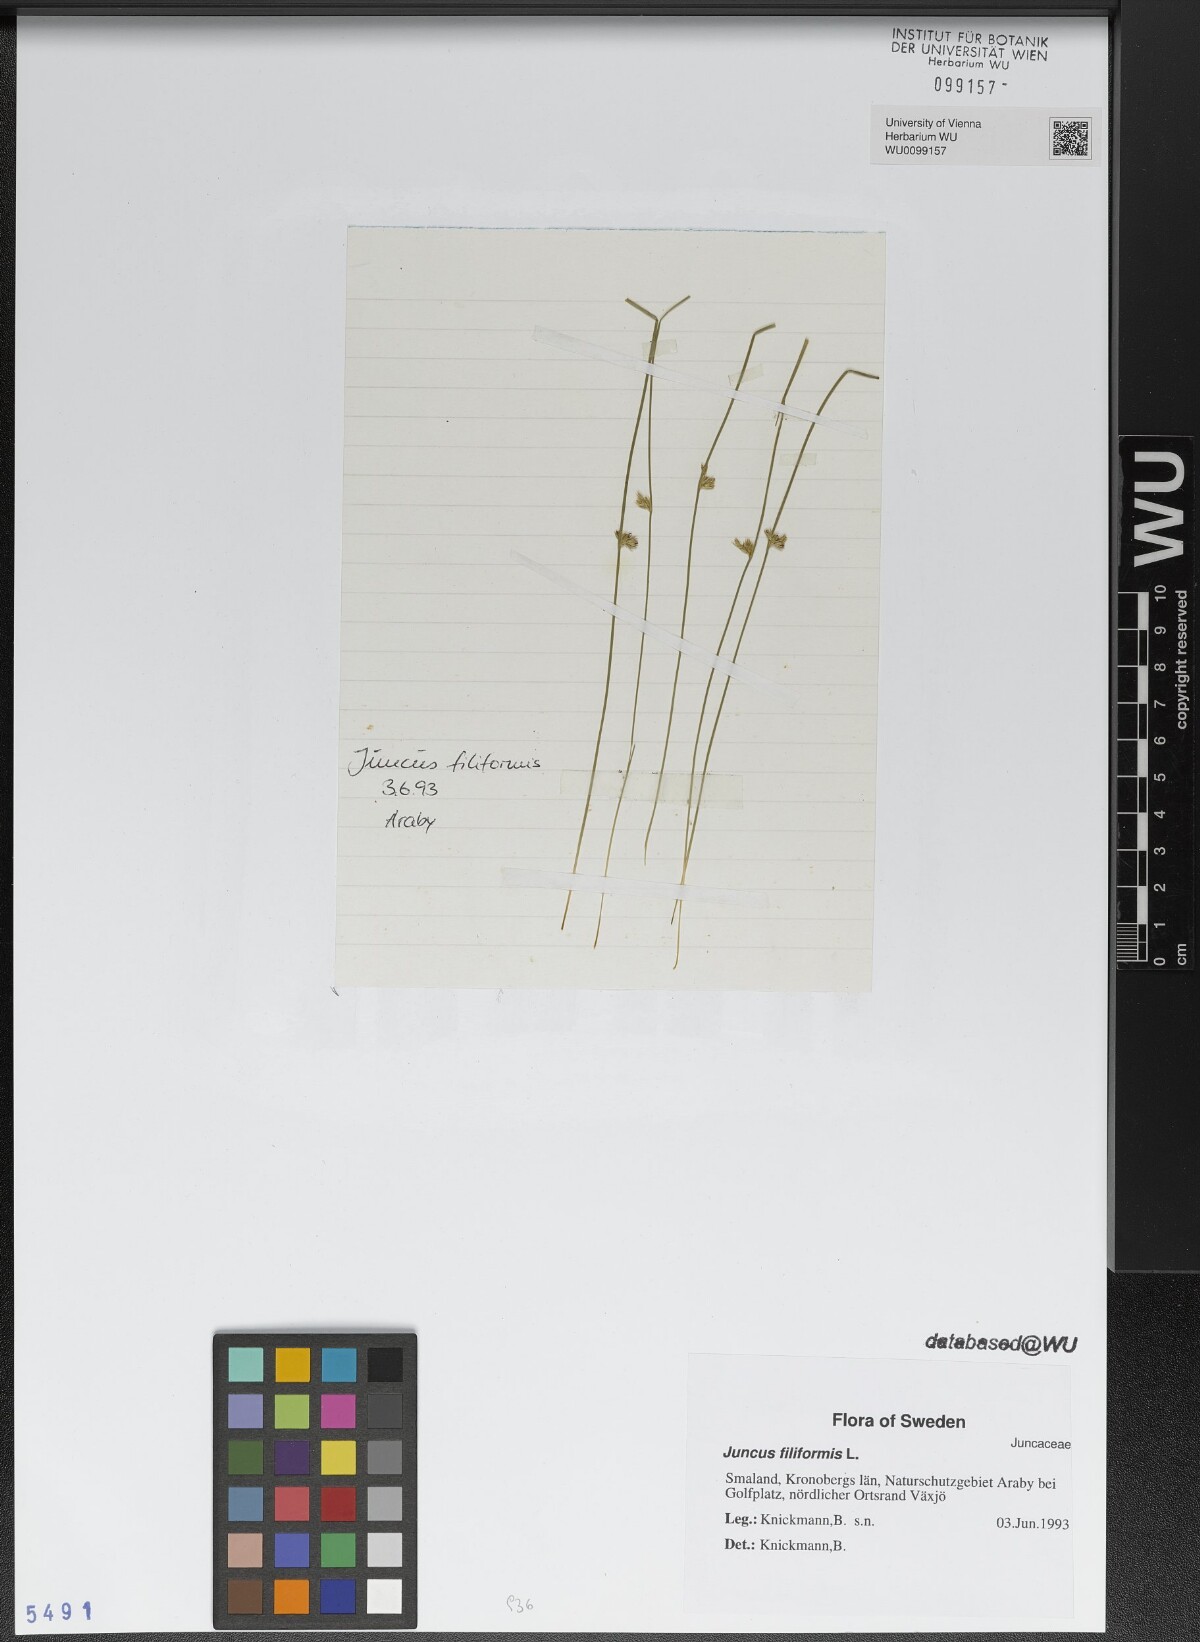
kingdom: Plantae
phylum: Tracheophyta
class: Liliopsida
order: Poales
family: Juncaceae
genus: Juncus
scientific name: Juncus filiformis
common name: Thread rush
